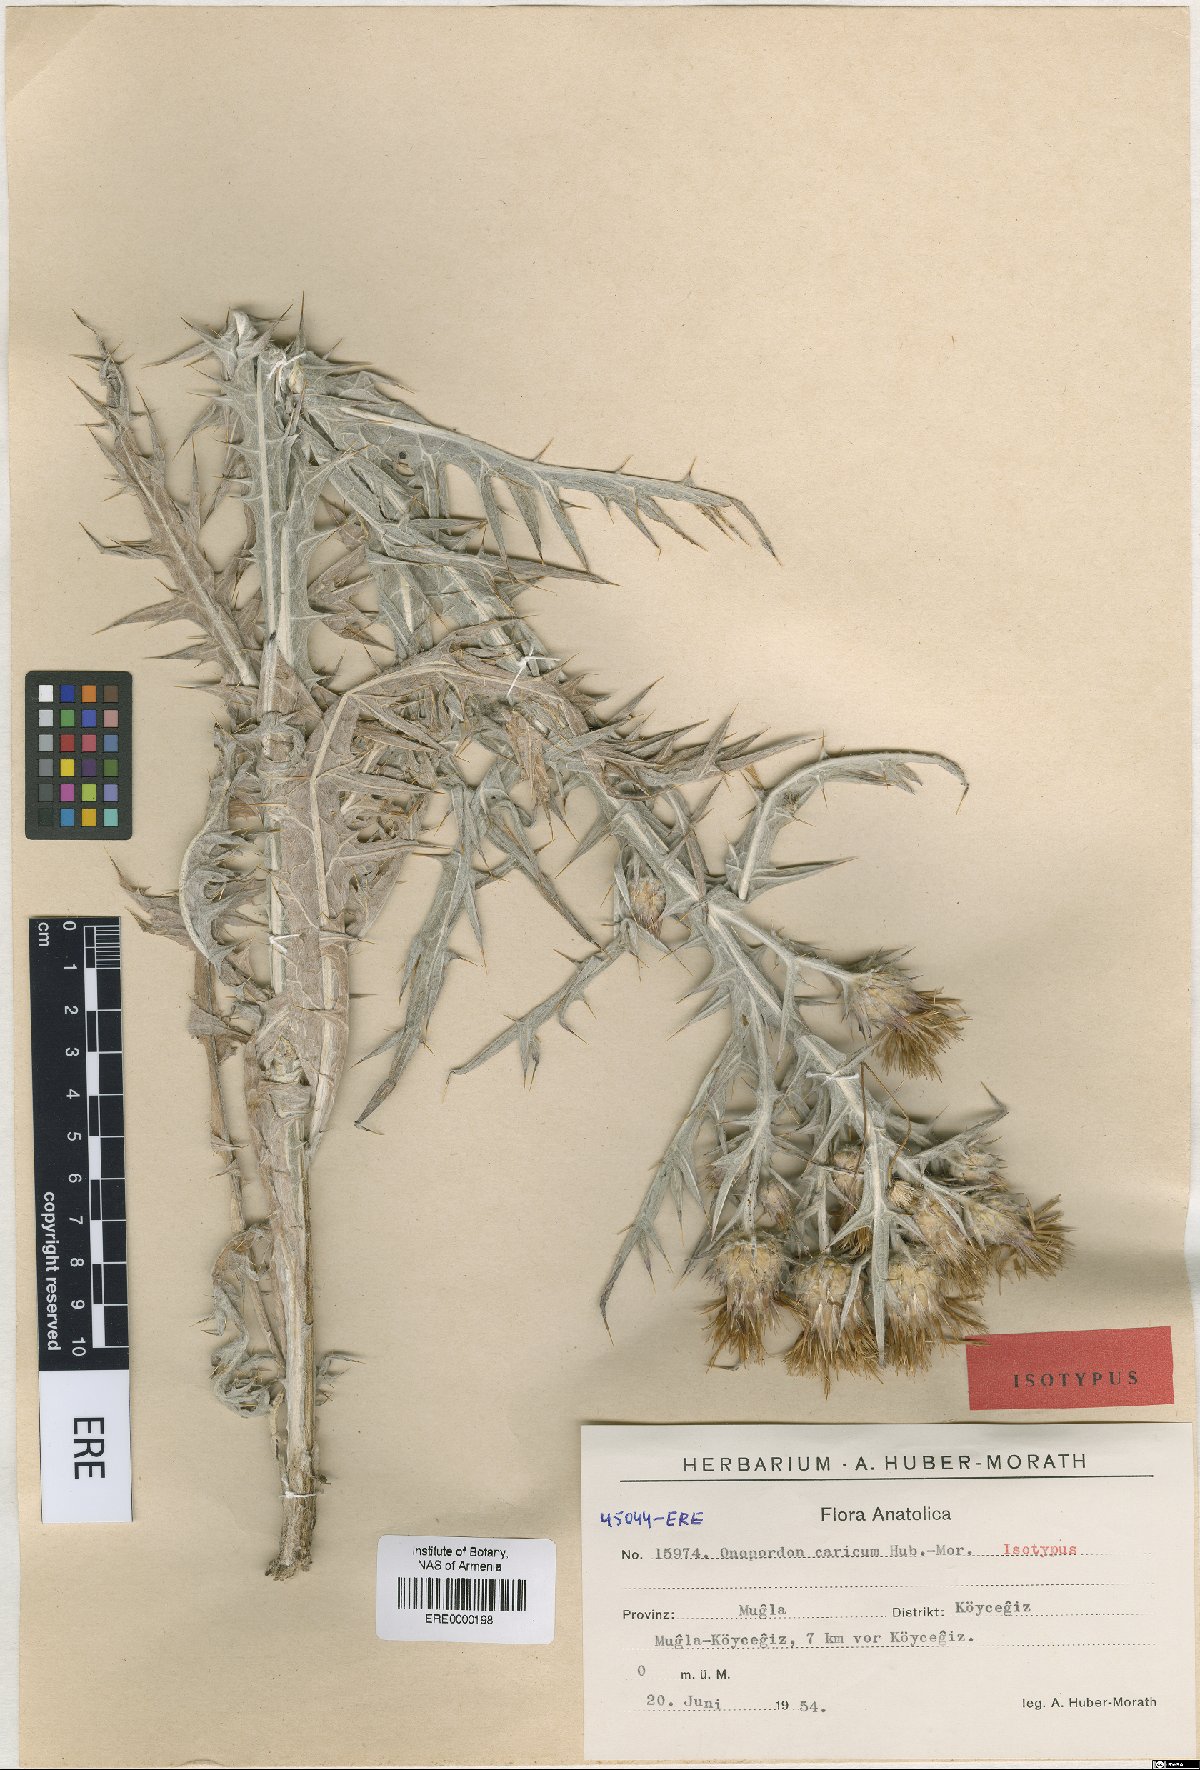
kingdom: Plantae
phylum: Tracheophyta
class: Magnoliopsida
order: Asterales
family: Asteraceae
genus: Onopordum
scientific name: Onopordum caricum
